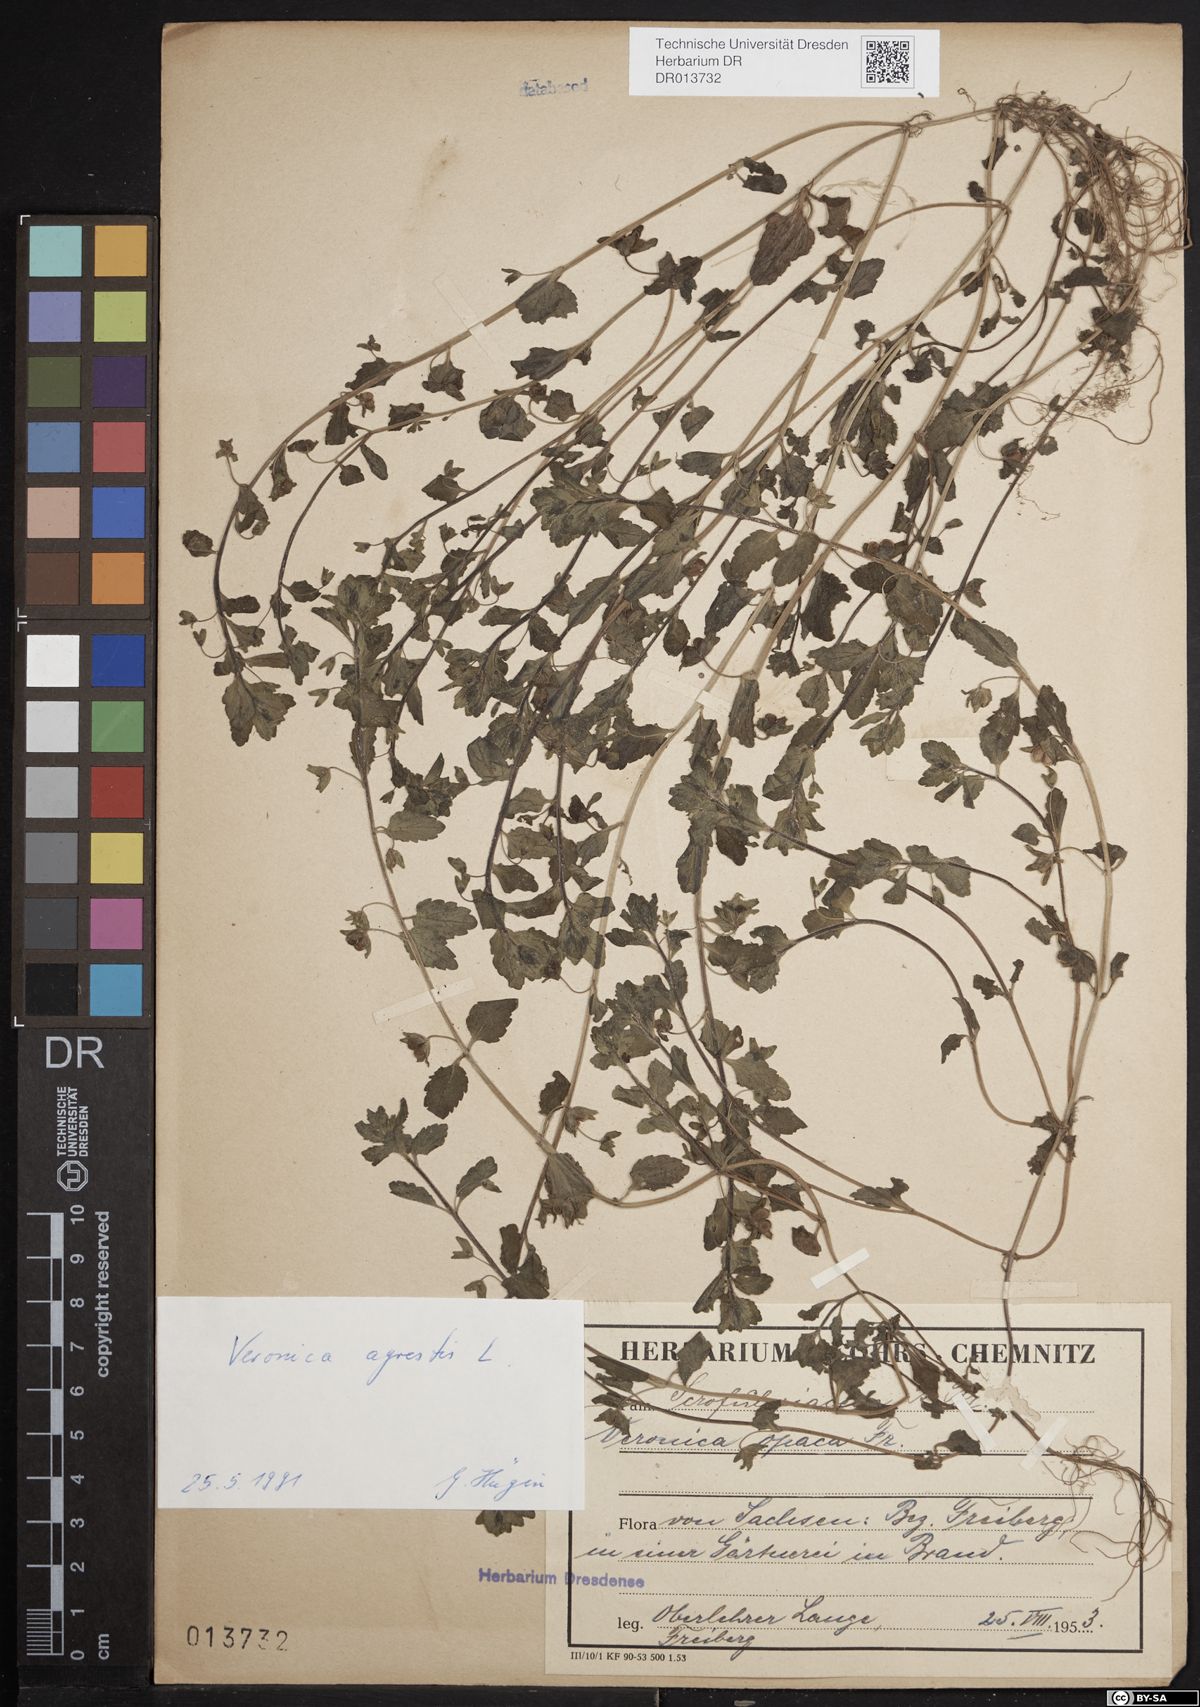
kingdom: Plantae
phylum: Tracheophyta
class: Magnoliopsida
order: Lamiales
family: Plantaginaceae
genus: Veronica
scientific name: Veronica agrestis
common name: Green field-speedwell
